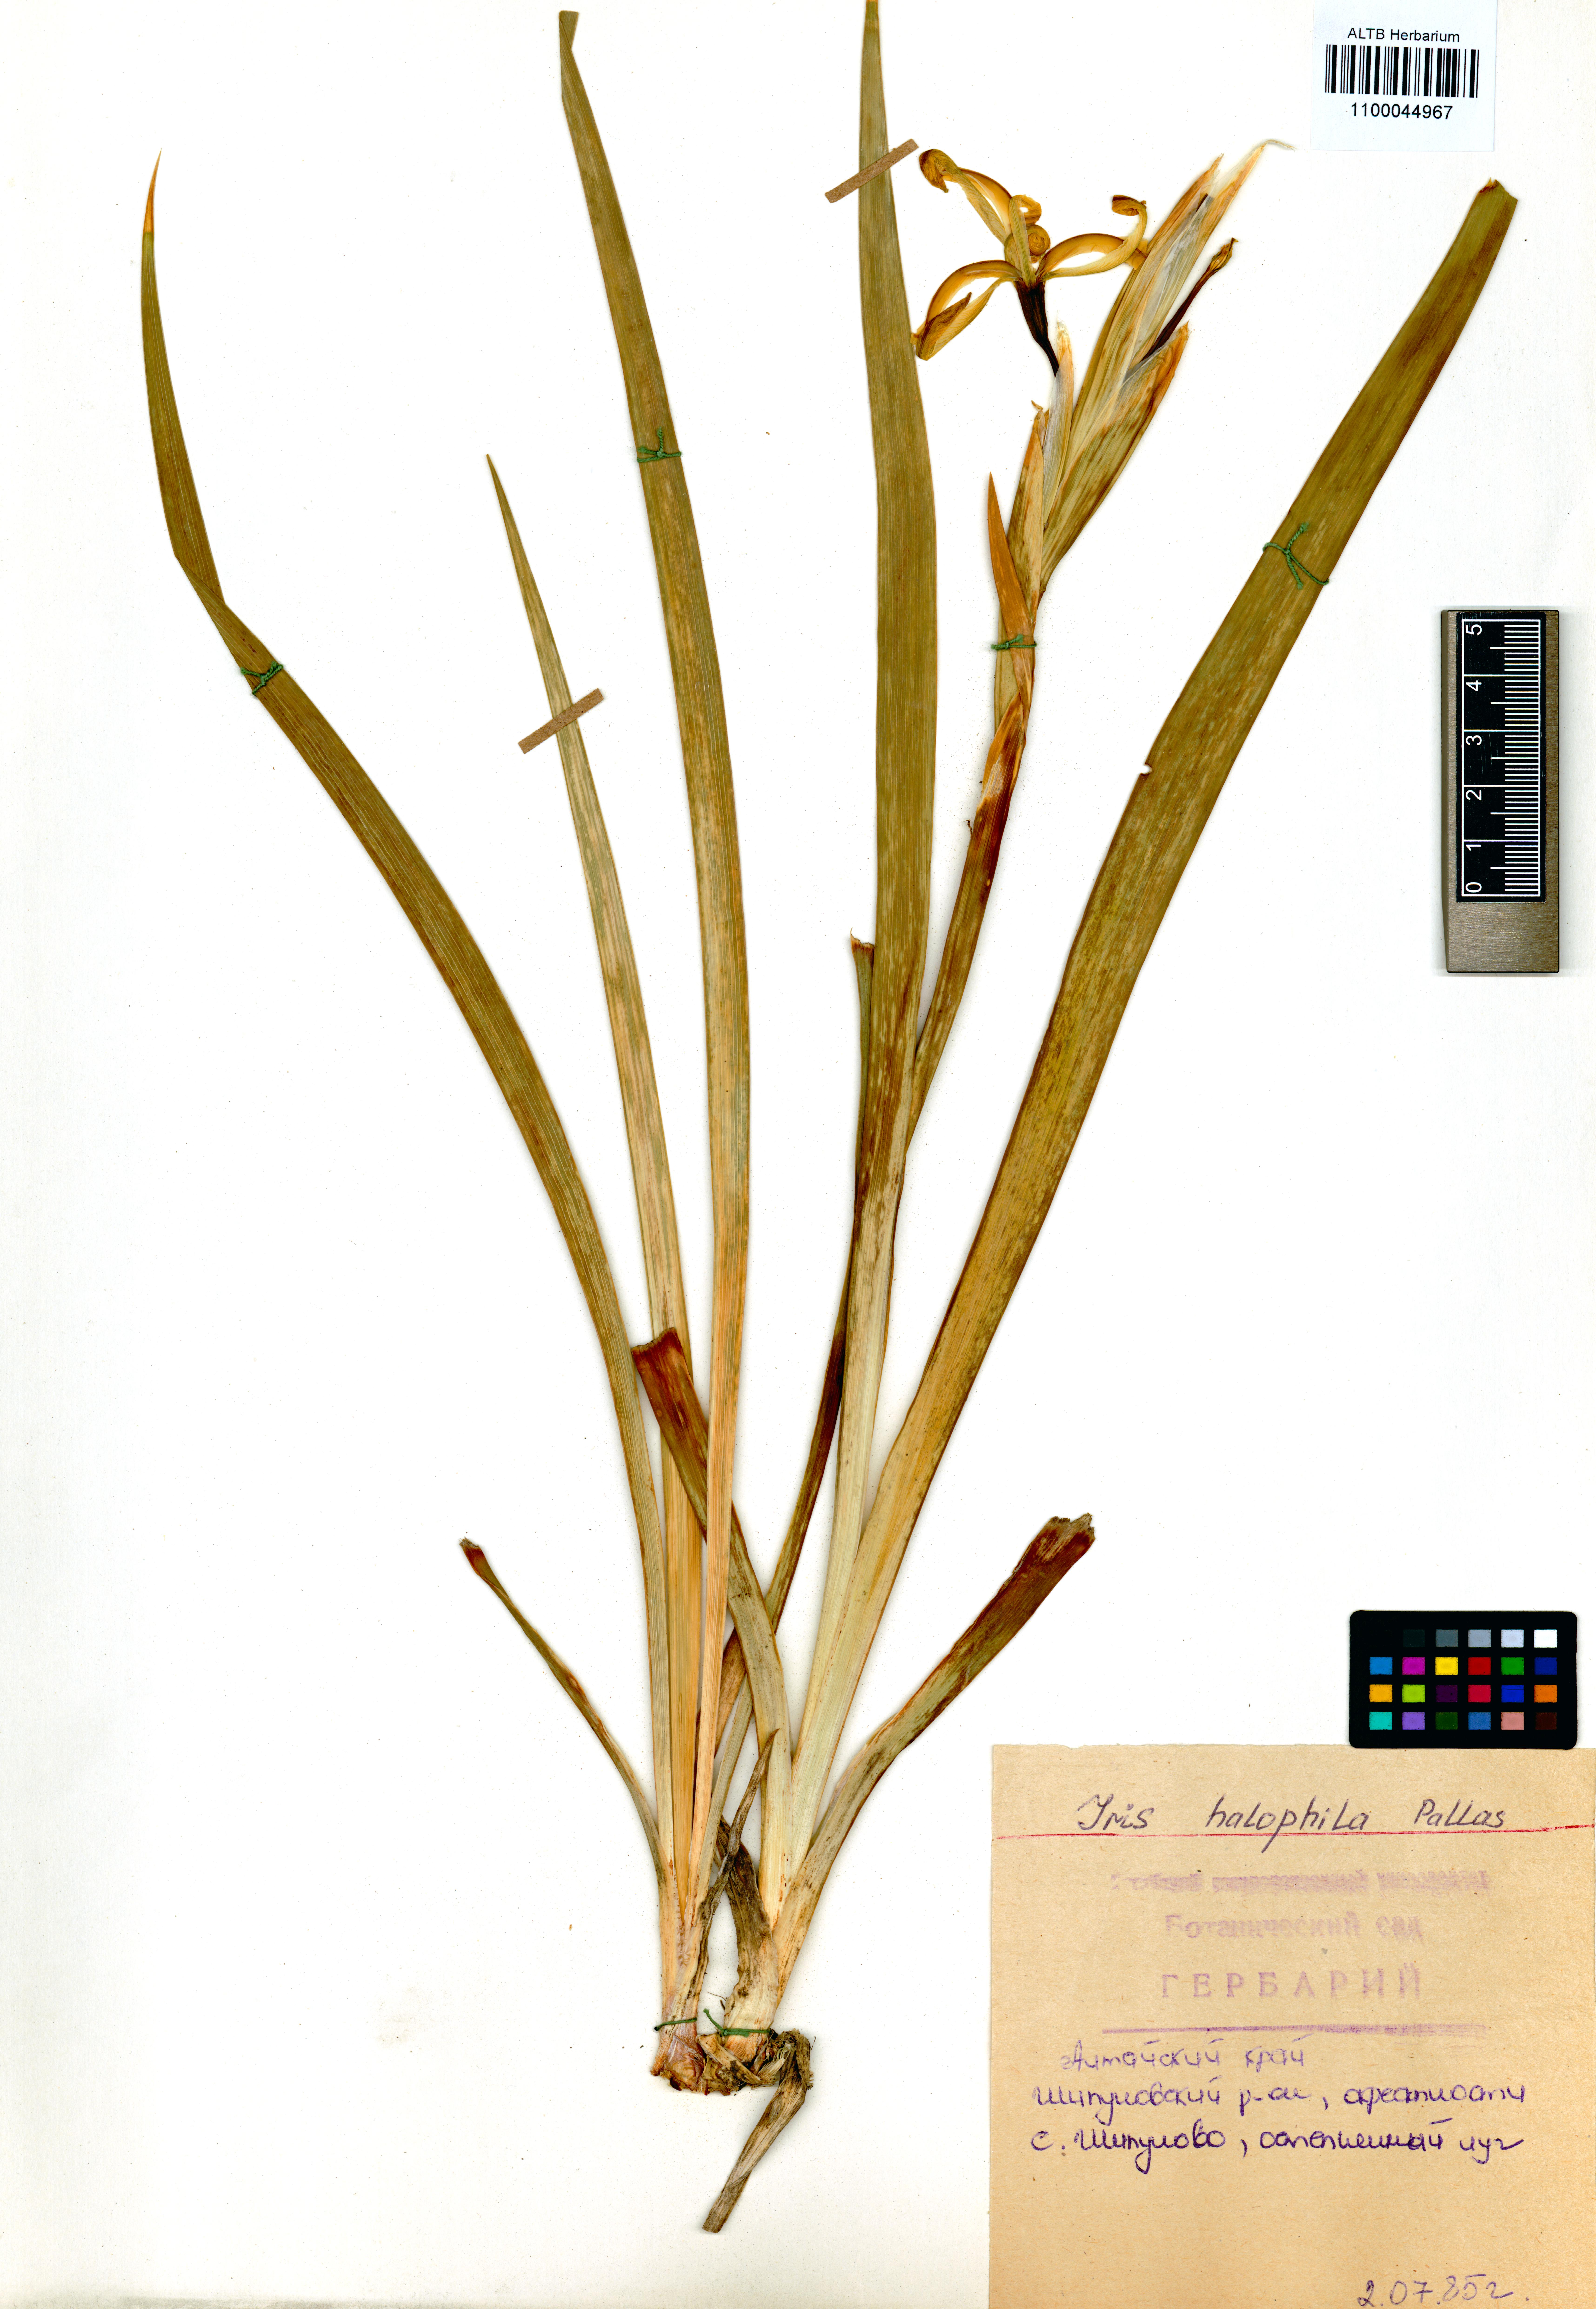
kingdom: Plantae
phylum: Tracheophyta
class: Liliopsida
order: Asparagales
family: Iridaceae
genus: Iris
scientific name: Iris halophila
